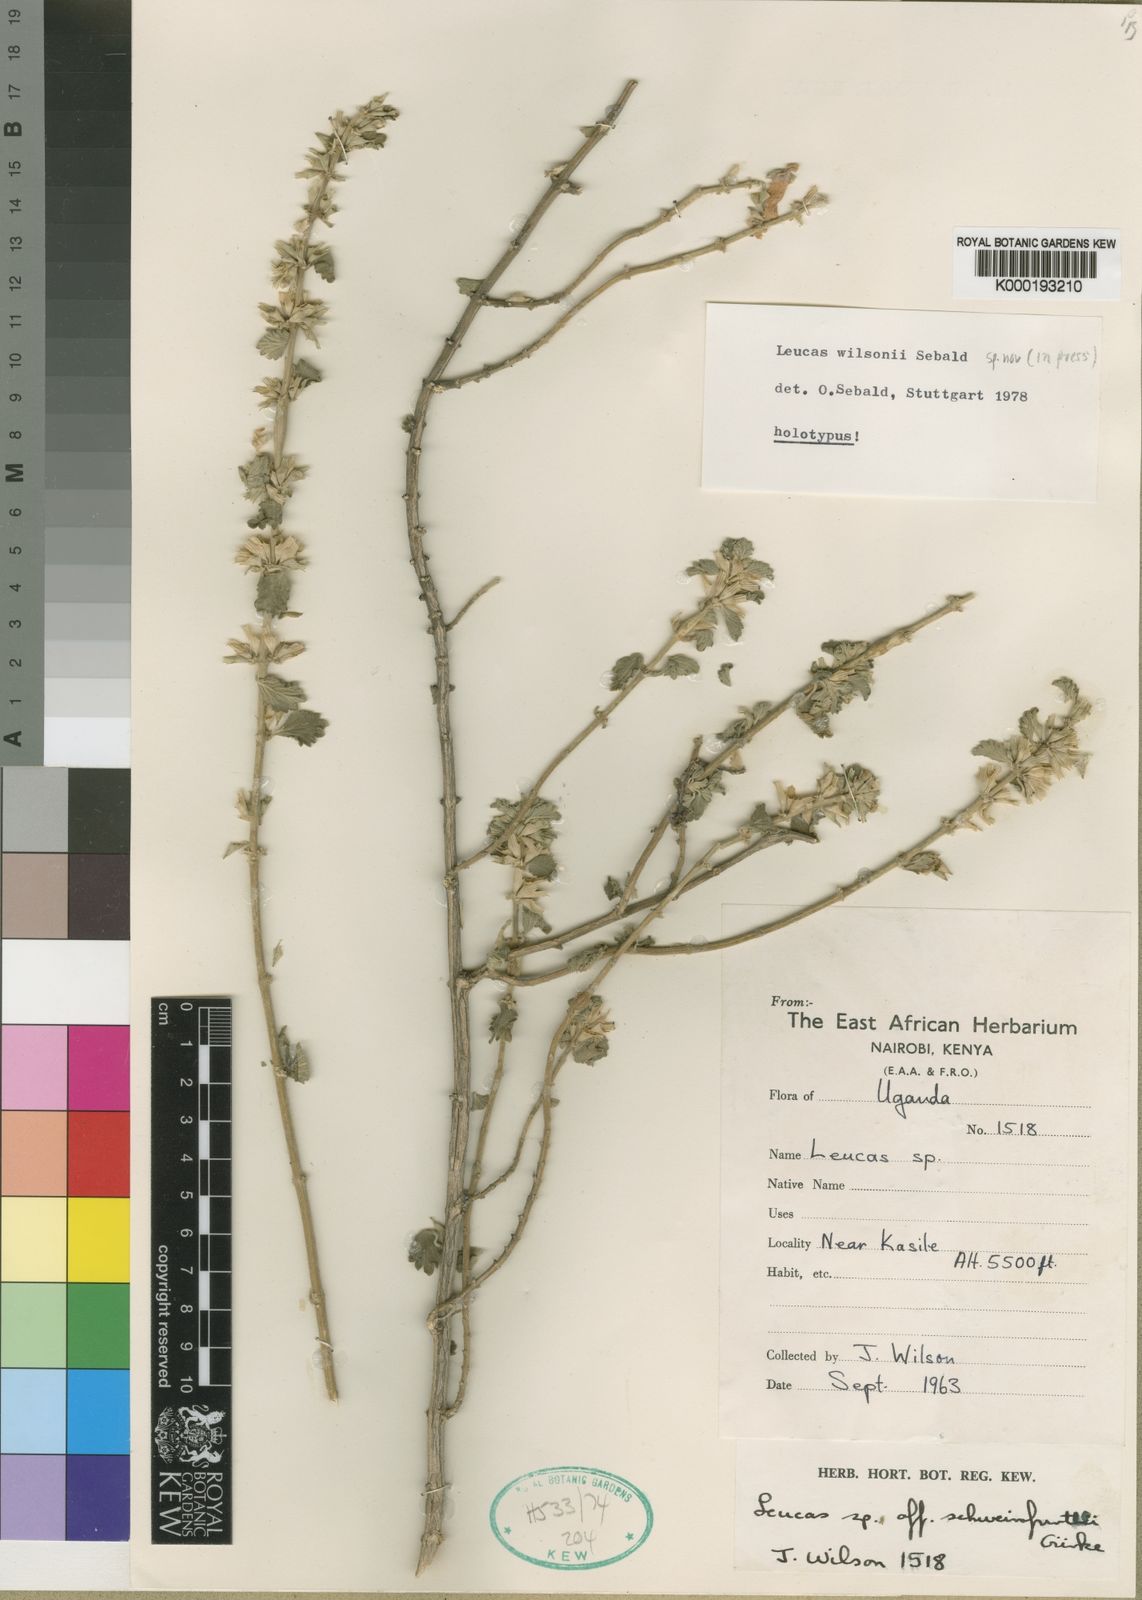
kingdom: Plantae
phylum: Tracheophyta
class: Magnoliopsida
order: Lamiales
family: Lamiaceae
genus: Leucas
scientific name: Leucas wilsonii
